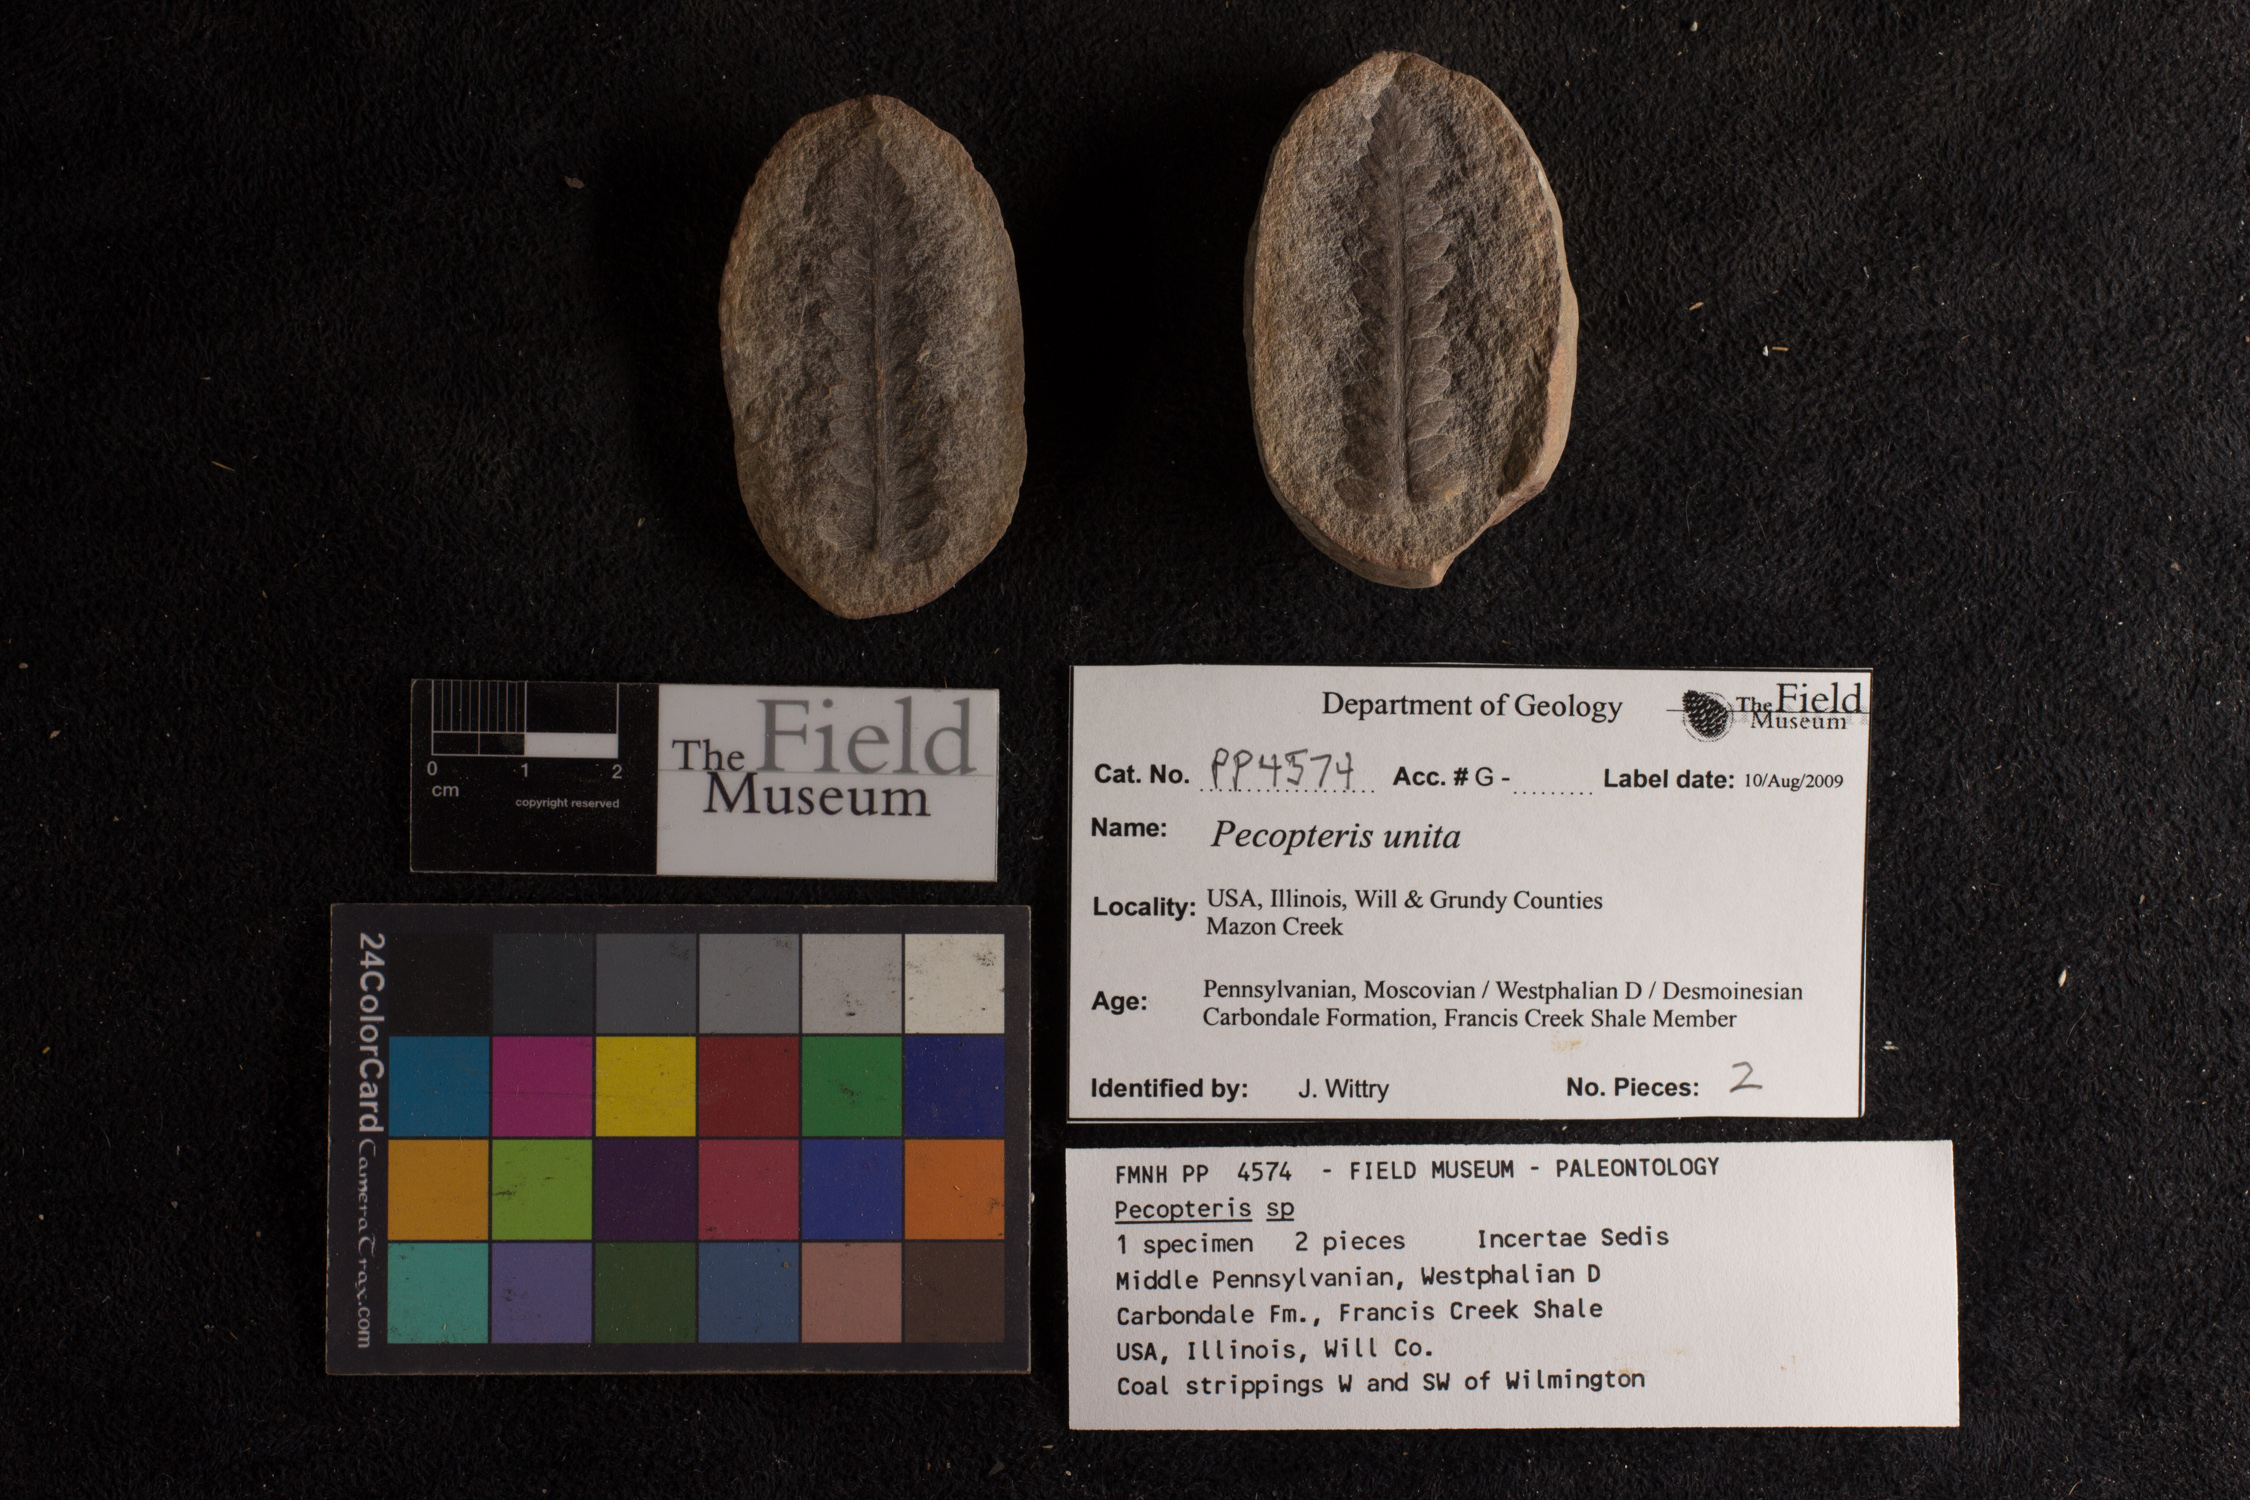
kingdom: Plantae
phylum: Tracheophyta
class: Polypodiopsida
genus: Diplazites
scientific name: Diplazites
